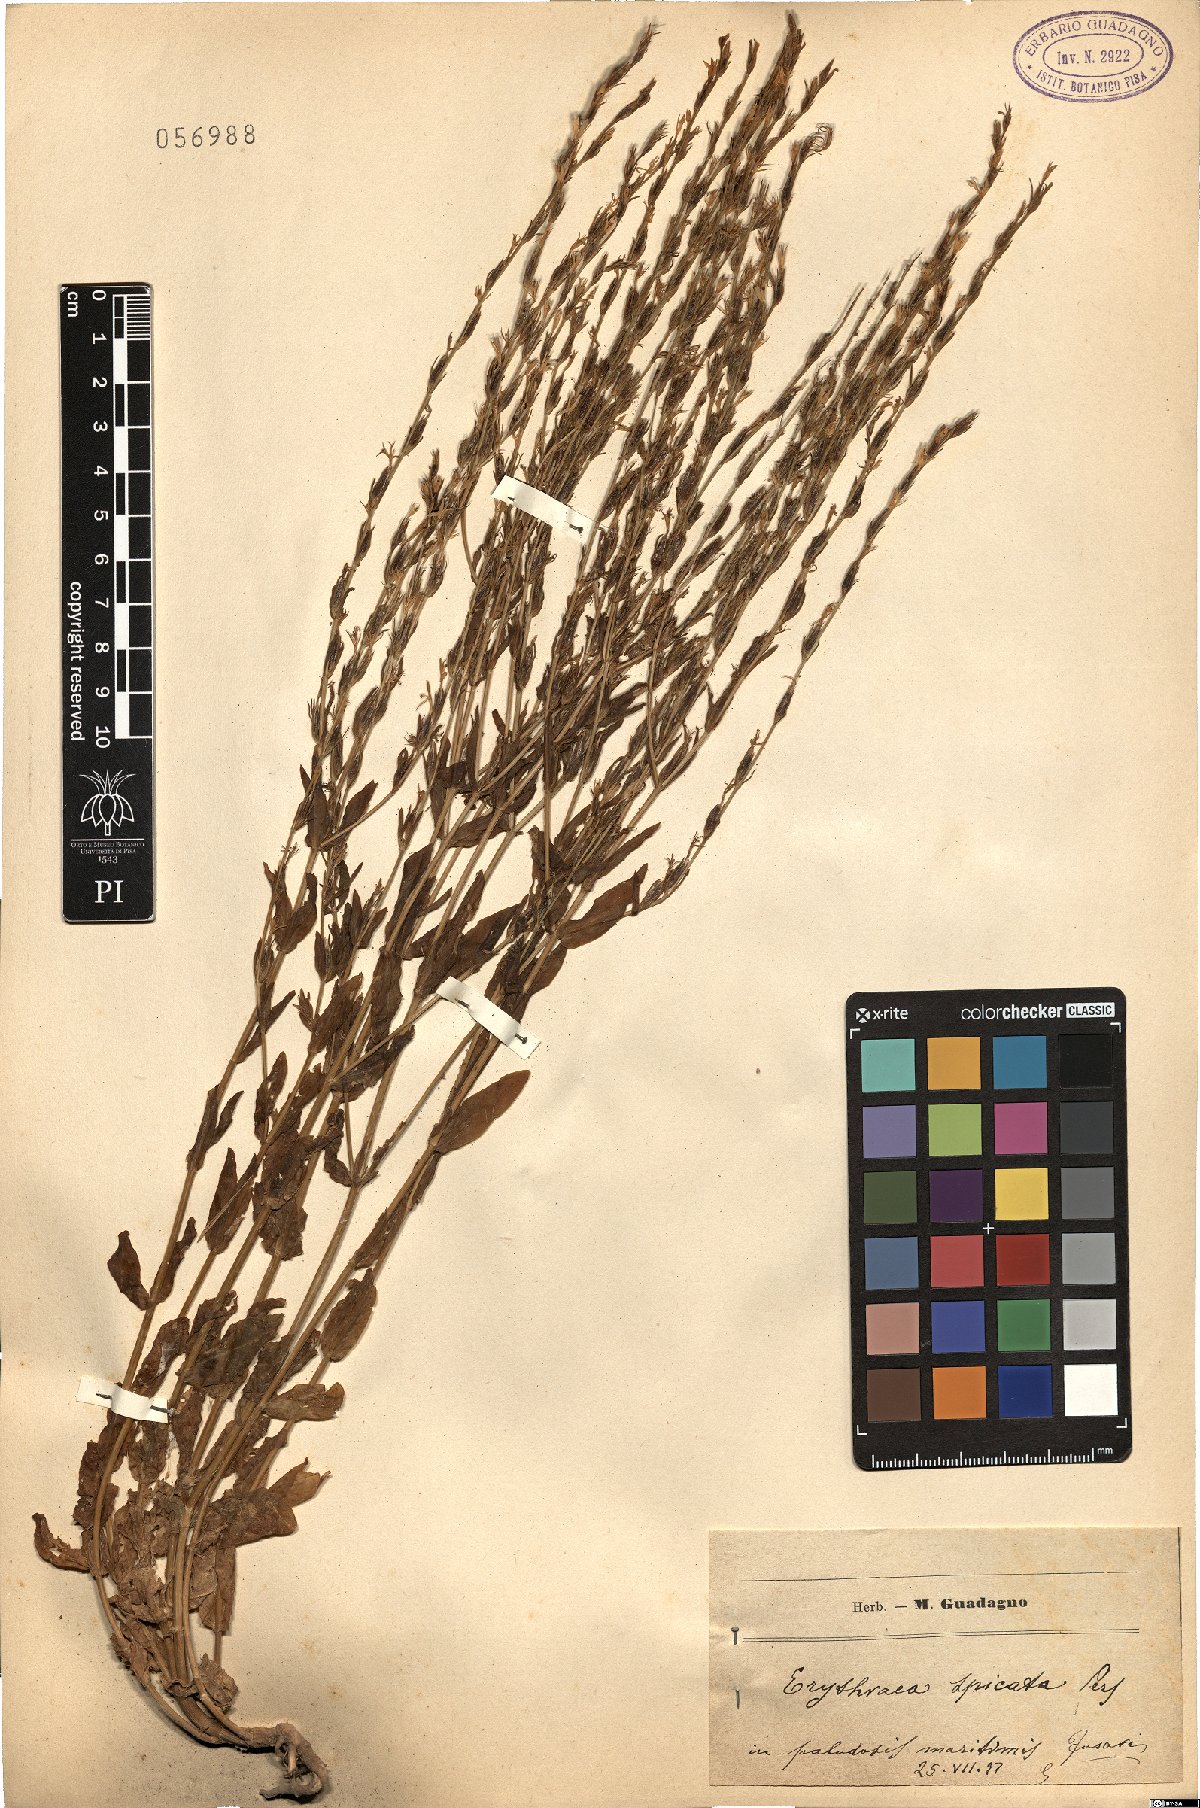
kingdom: Plantae
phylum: Tracheophyta
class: Magnoliopsida
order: Gentianales
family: Gentianaceae
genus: Schenkia
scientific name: Schenkia spicata
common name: Spiked centaury
